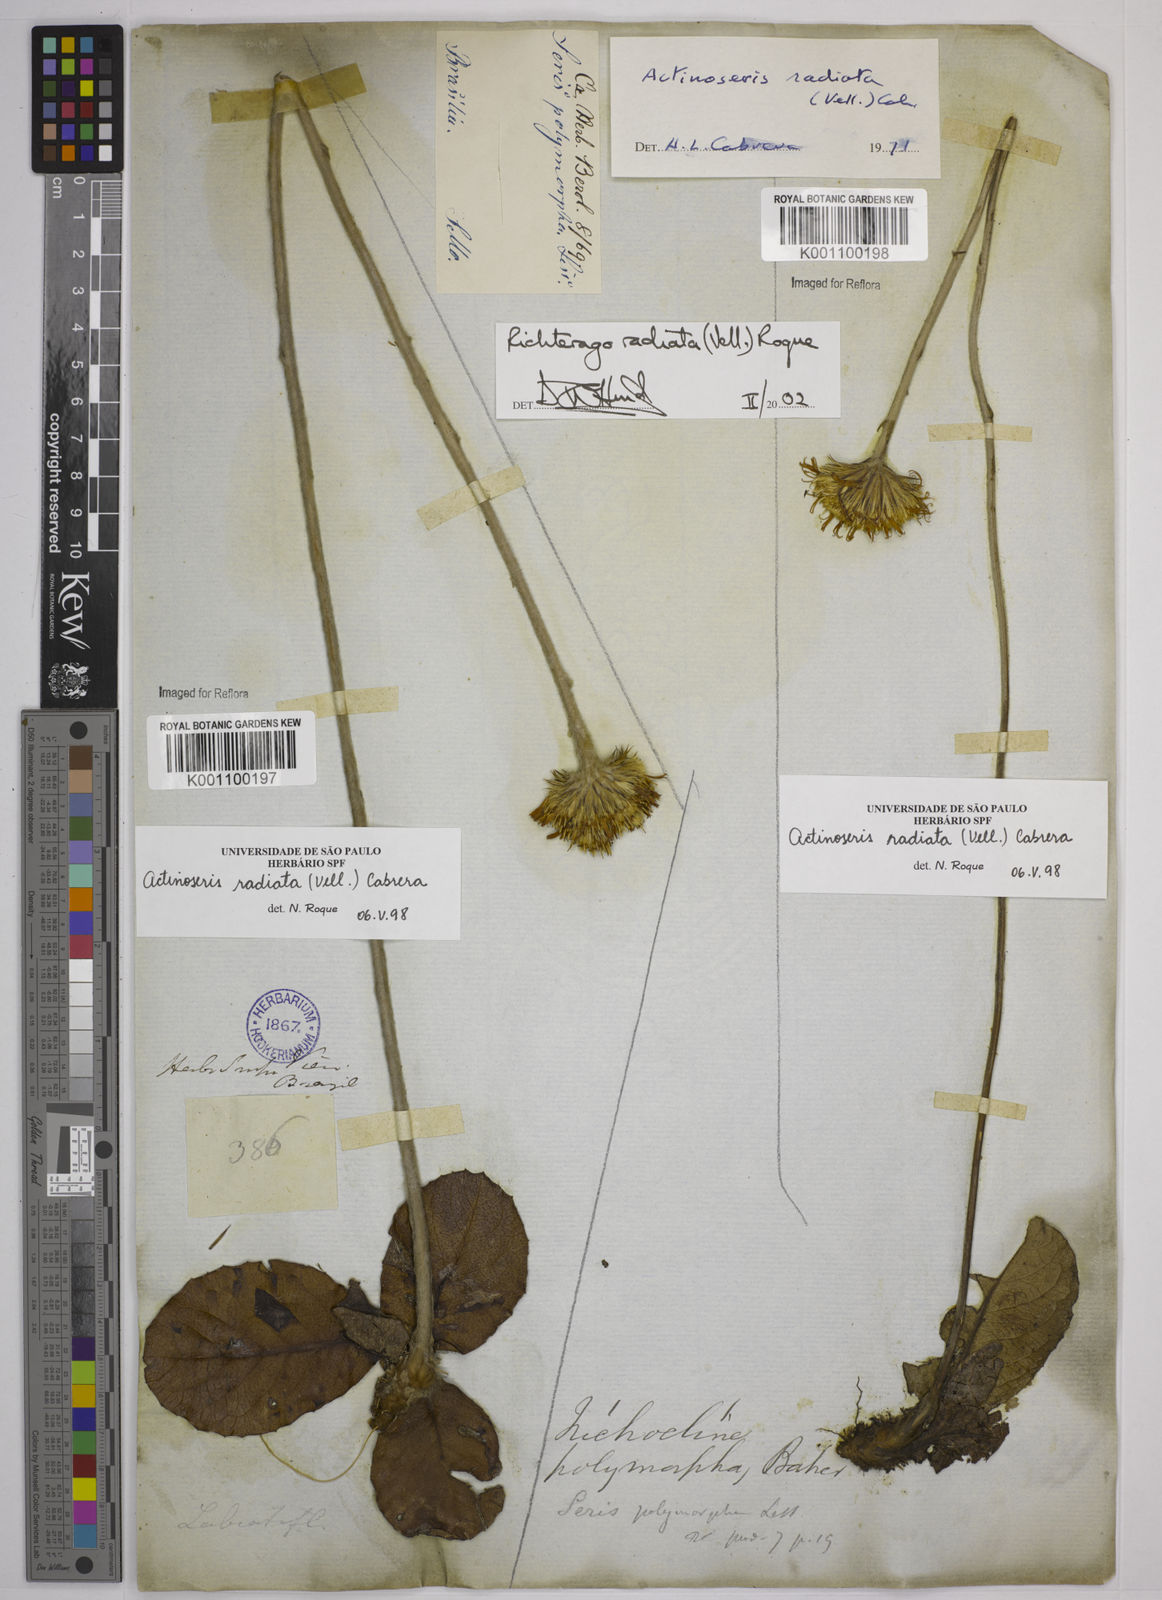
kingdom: Plantae
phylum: Tracheophyta
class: Magnoliopsida
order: Asterales
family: Asteraceae
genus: Richterago
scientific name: Richterago radiata
